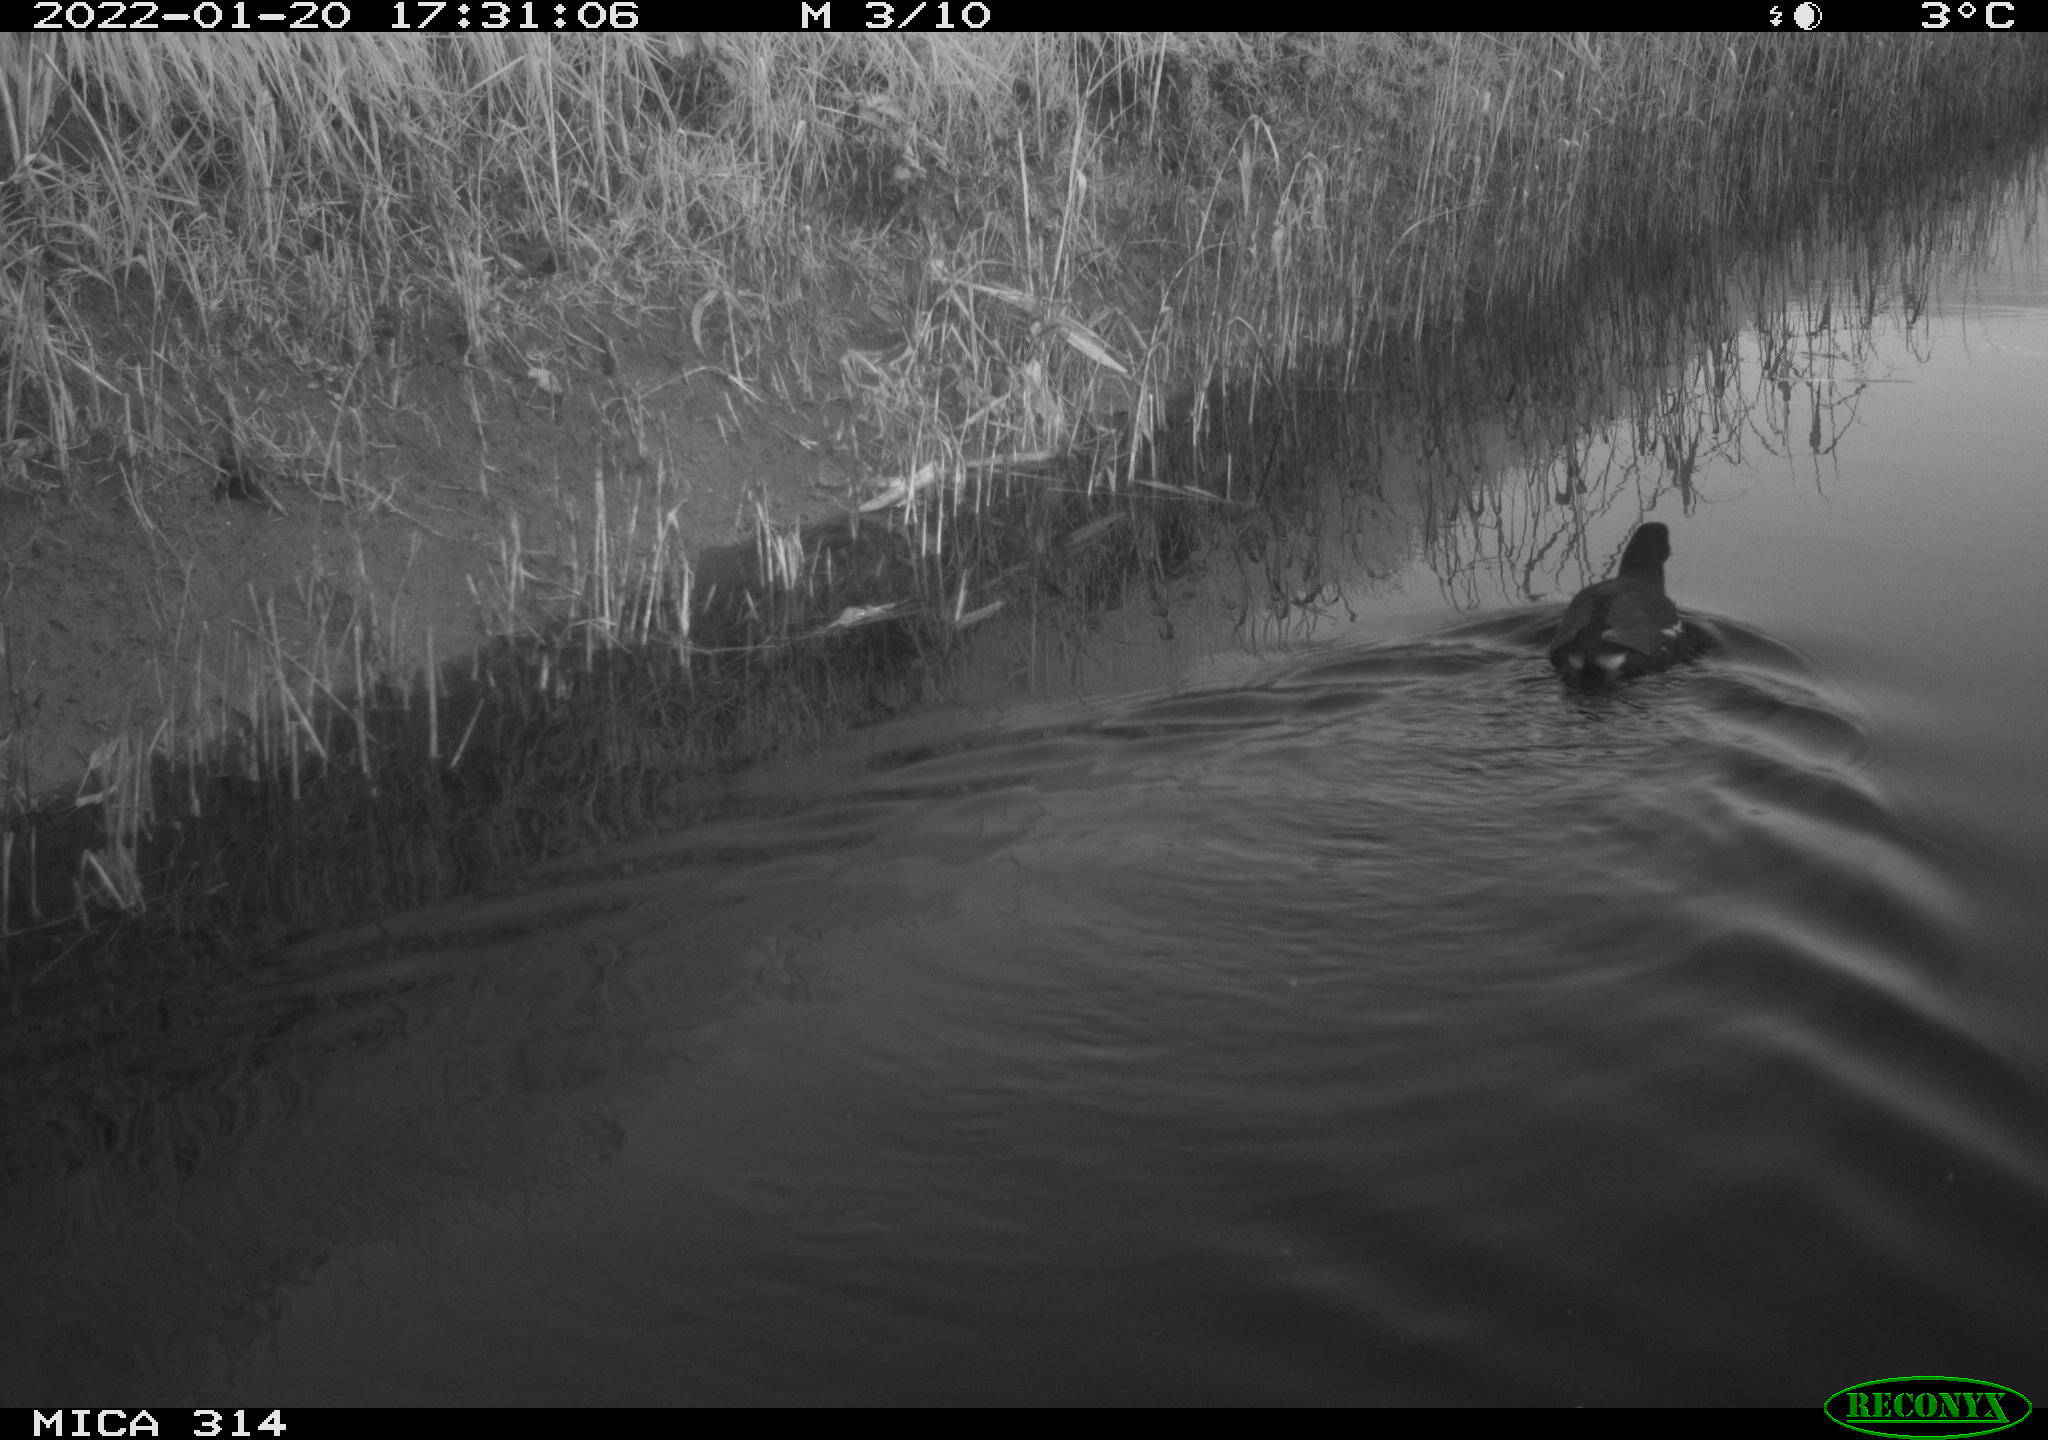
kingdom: Animalia
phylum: Chordata
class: Aves
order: Gruiformes
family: Rallidae
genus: Gallinula
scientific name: Gallinula chloropus
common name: Common moorhen
